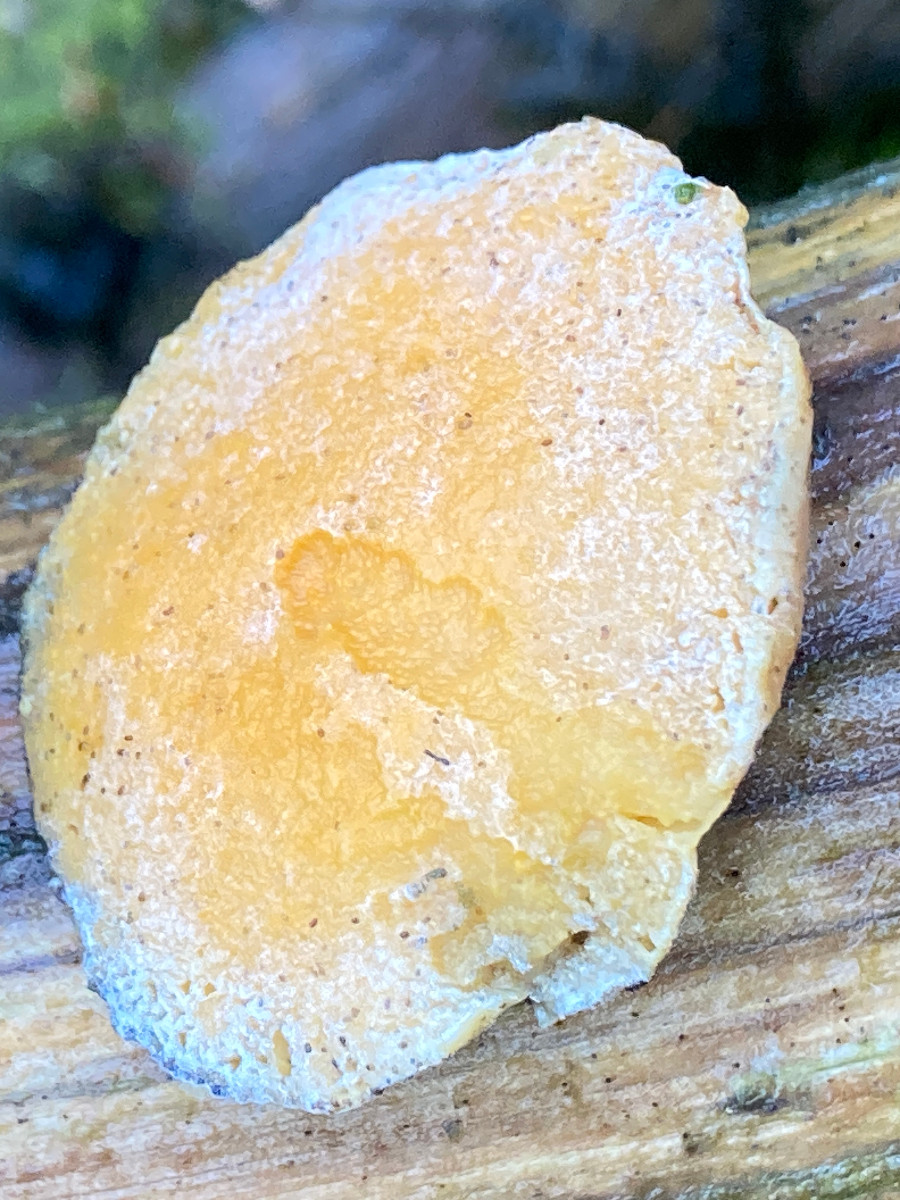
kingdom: Fungi
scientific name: Fungi
